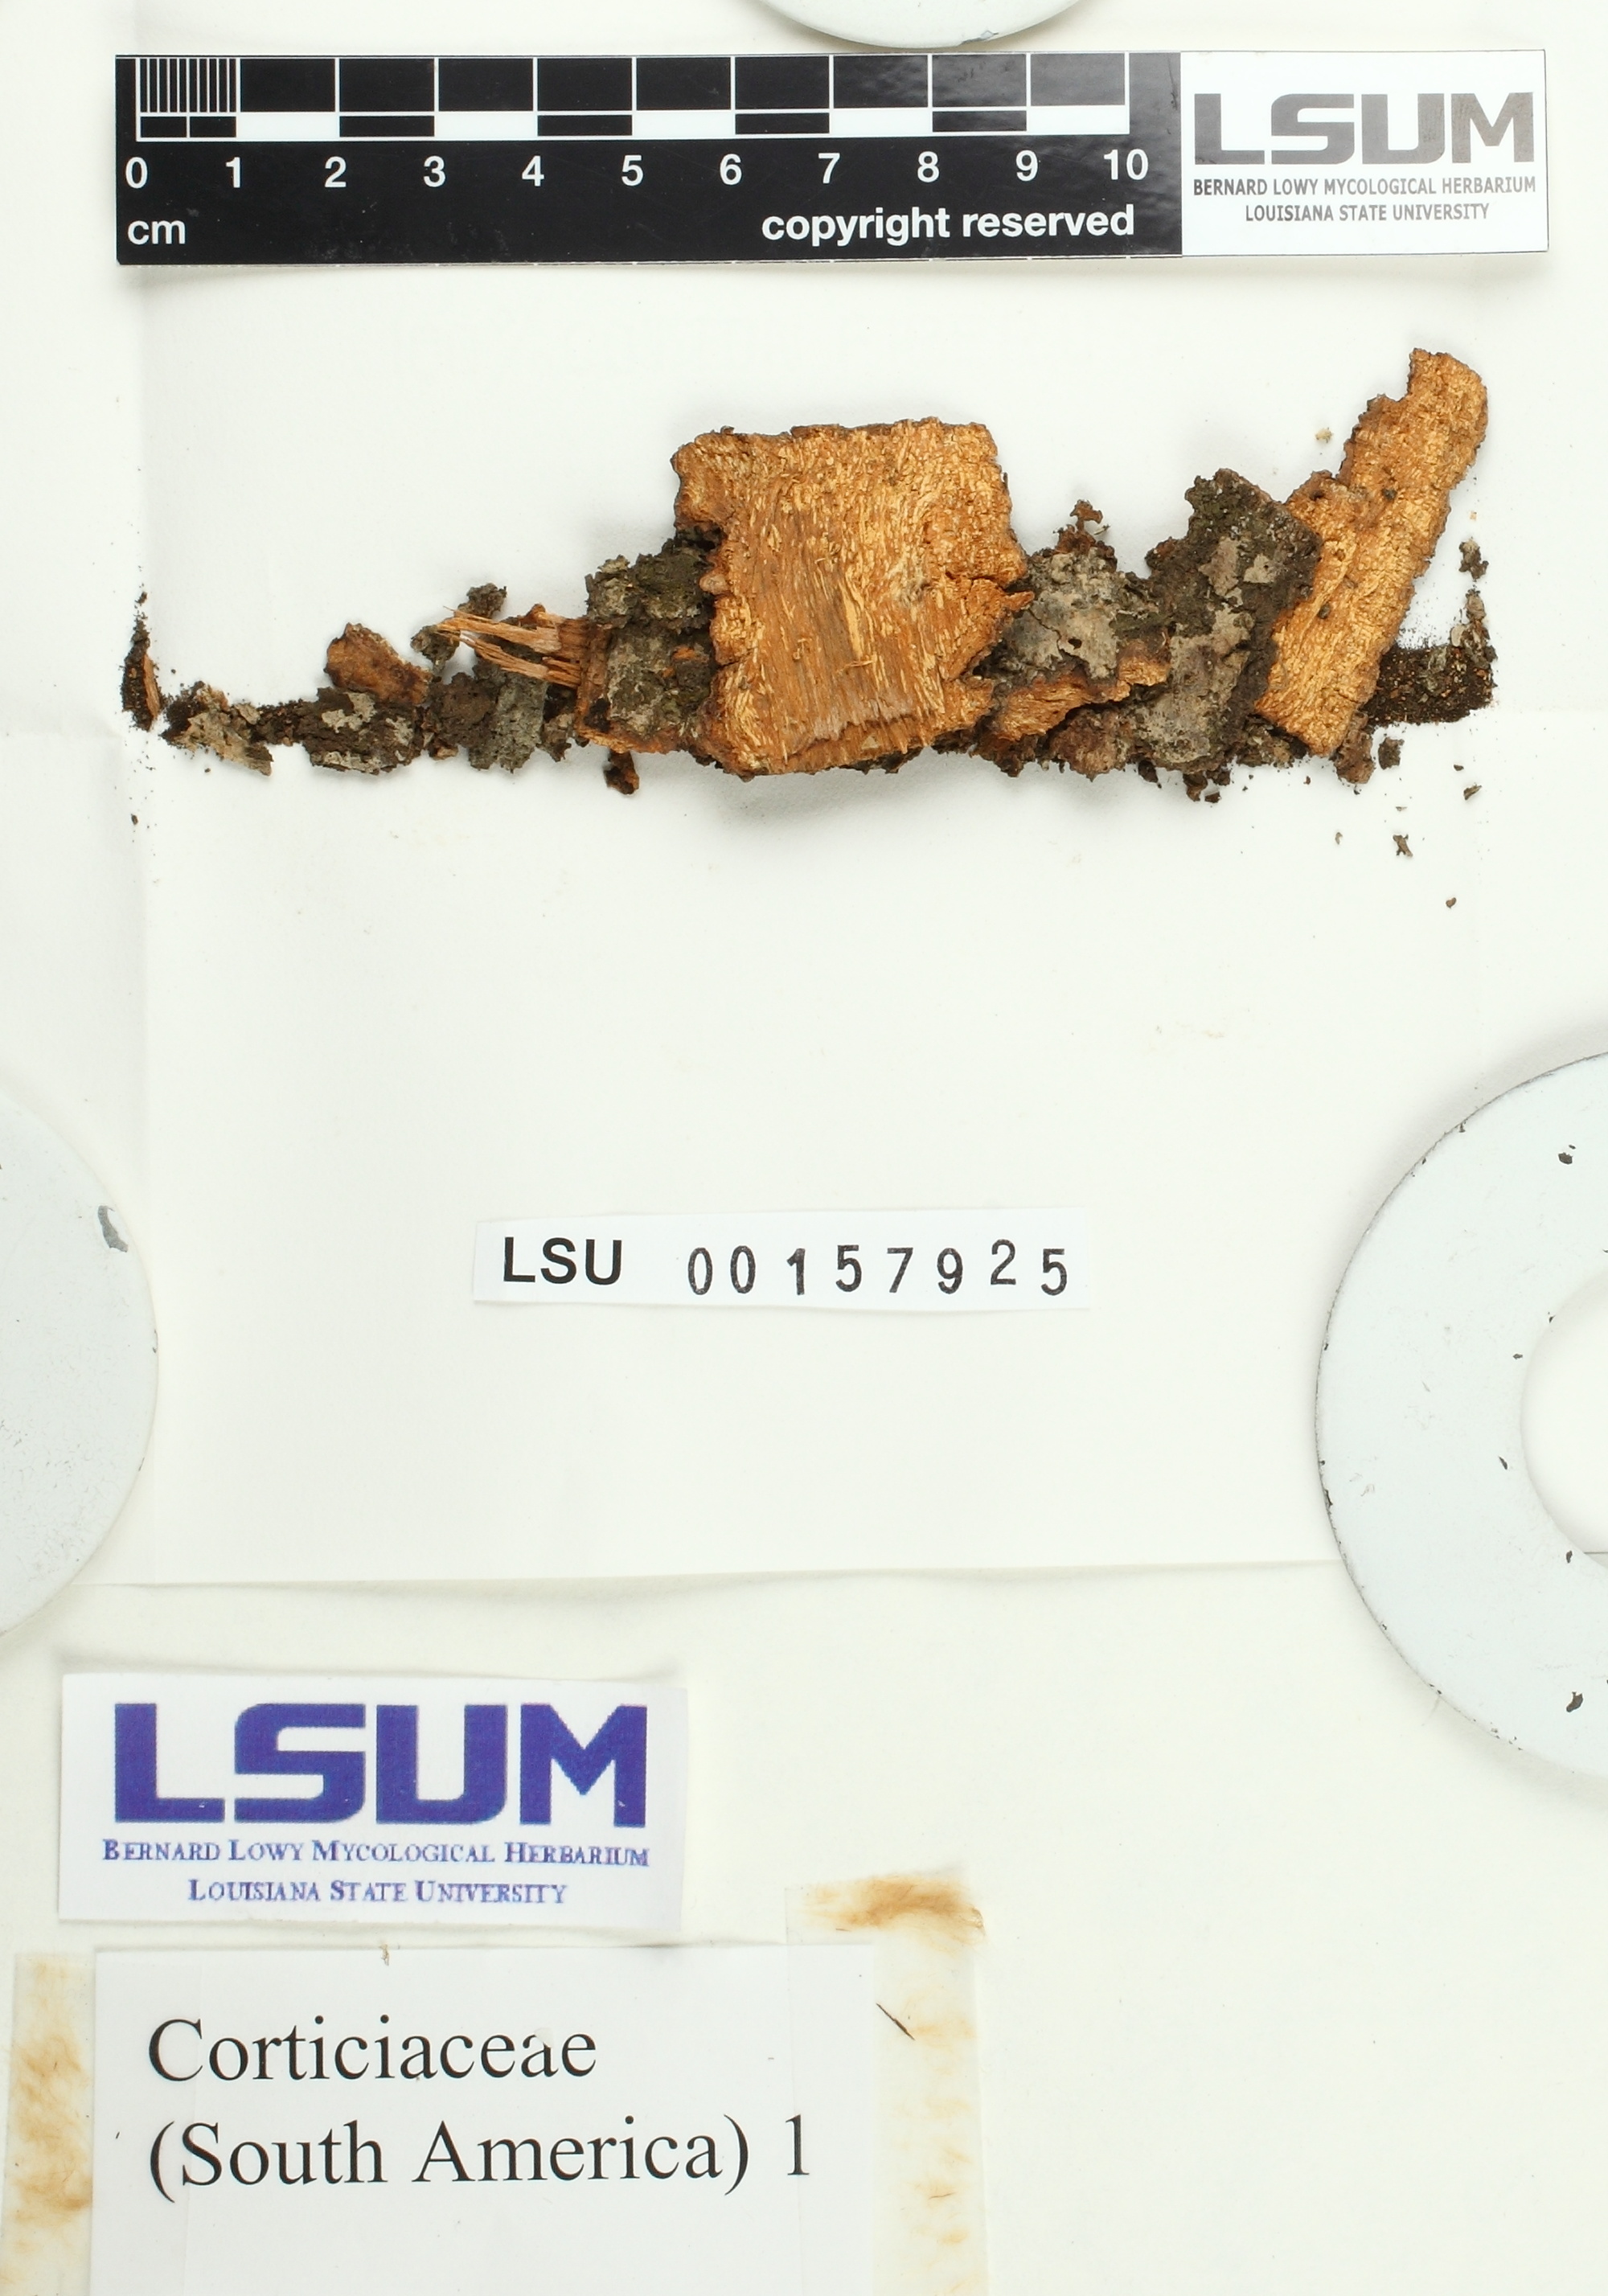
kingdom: Fungi
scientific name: Fungi
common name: Fungi
